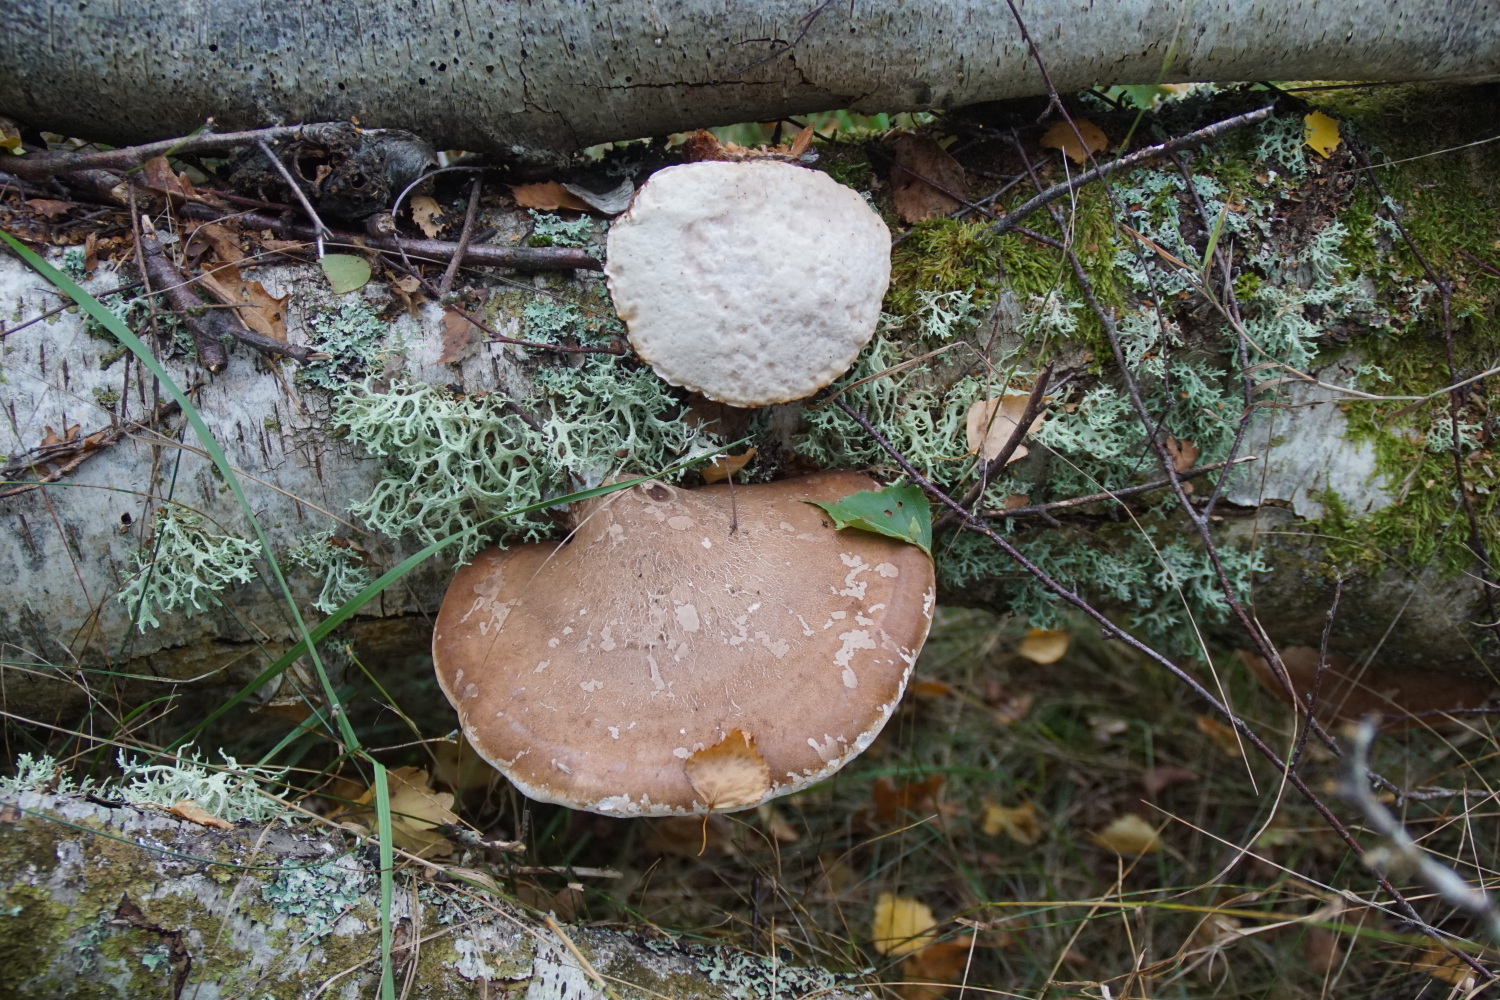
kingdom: Fungi
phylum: Basidiomycota
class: Agaricomycetes
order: Polyporales
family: Fomitopsidaceae
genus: Fomitopsis
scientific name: Fomitopsis betulina
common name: birkeporesvamp
